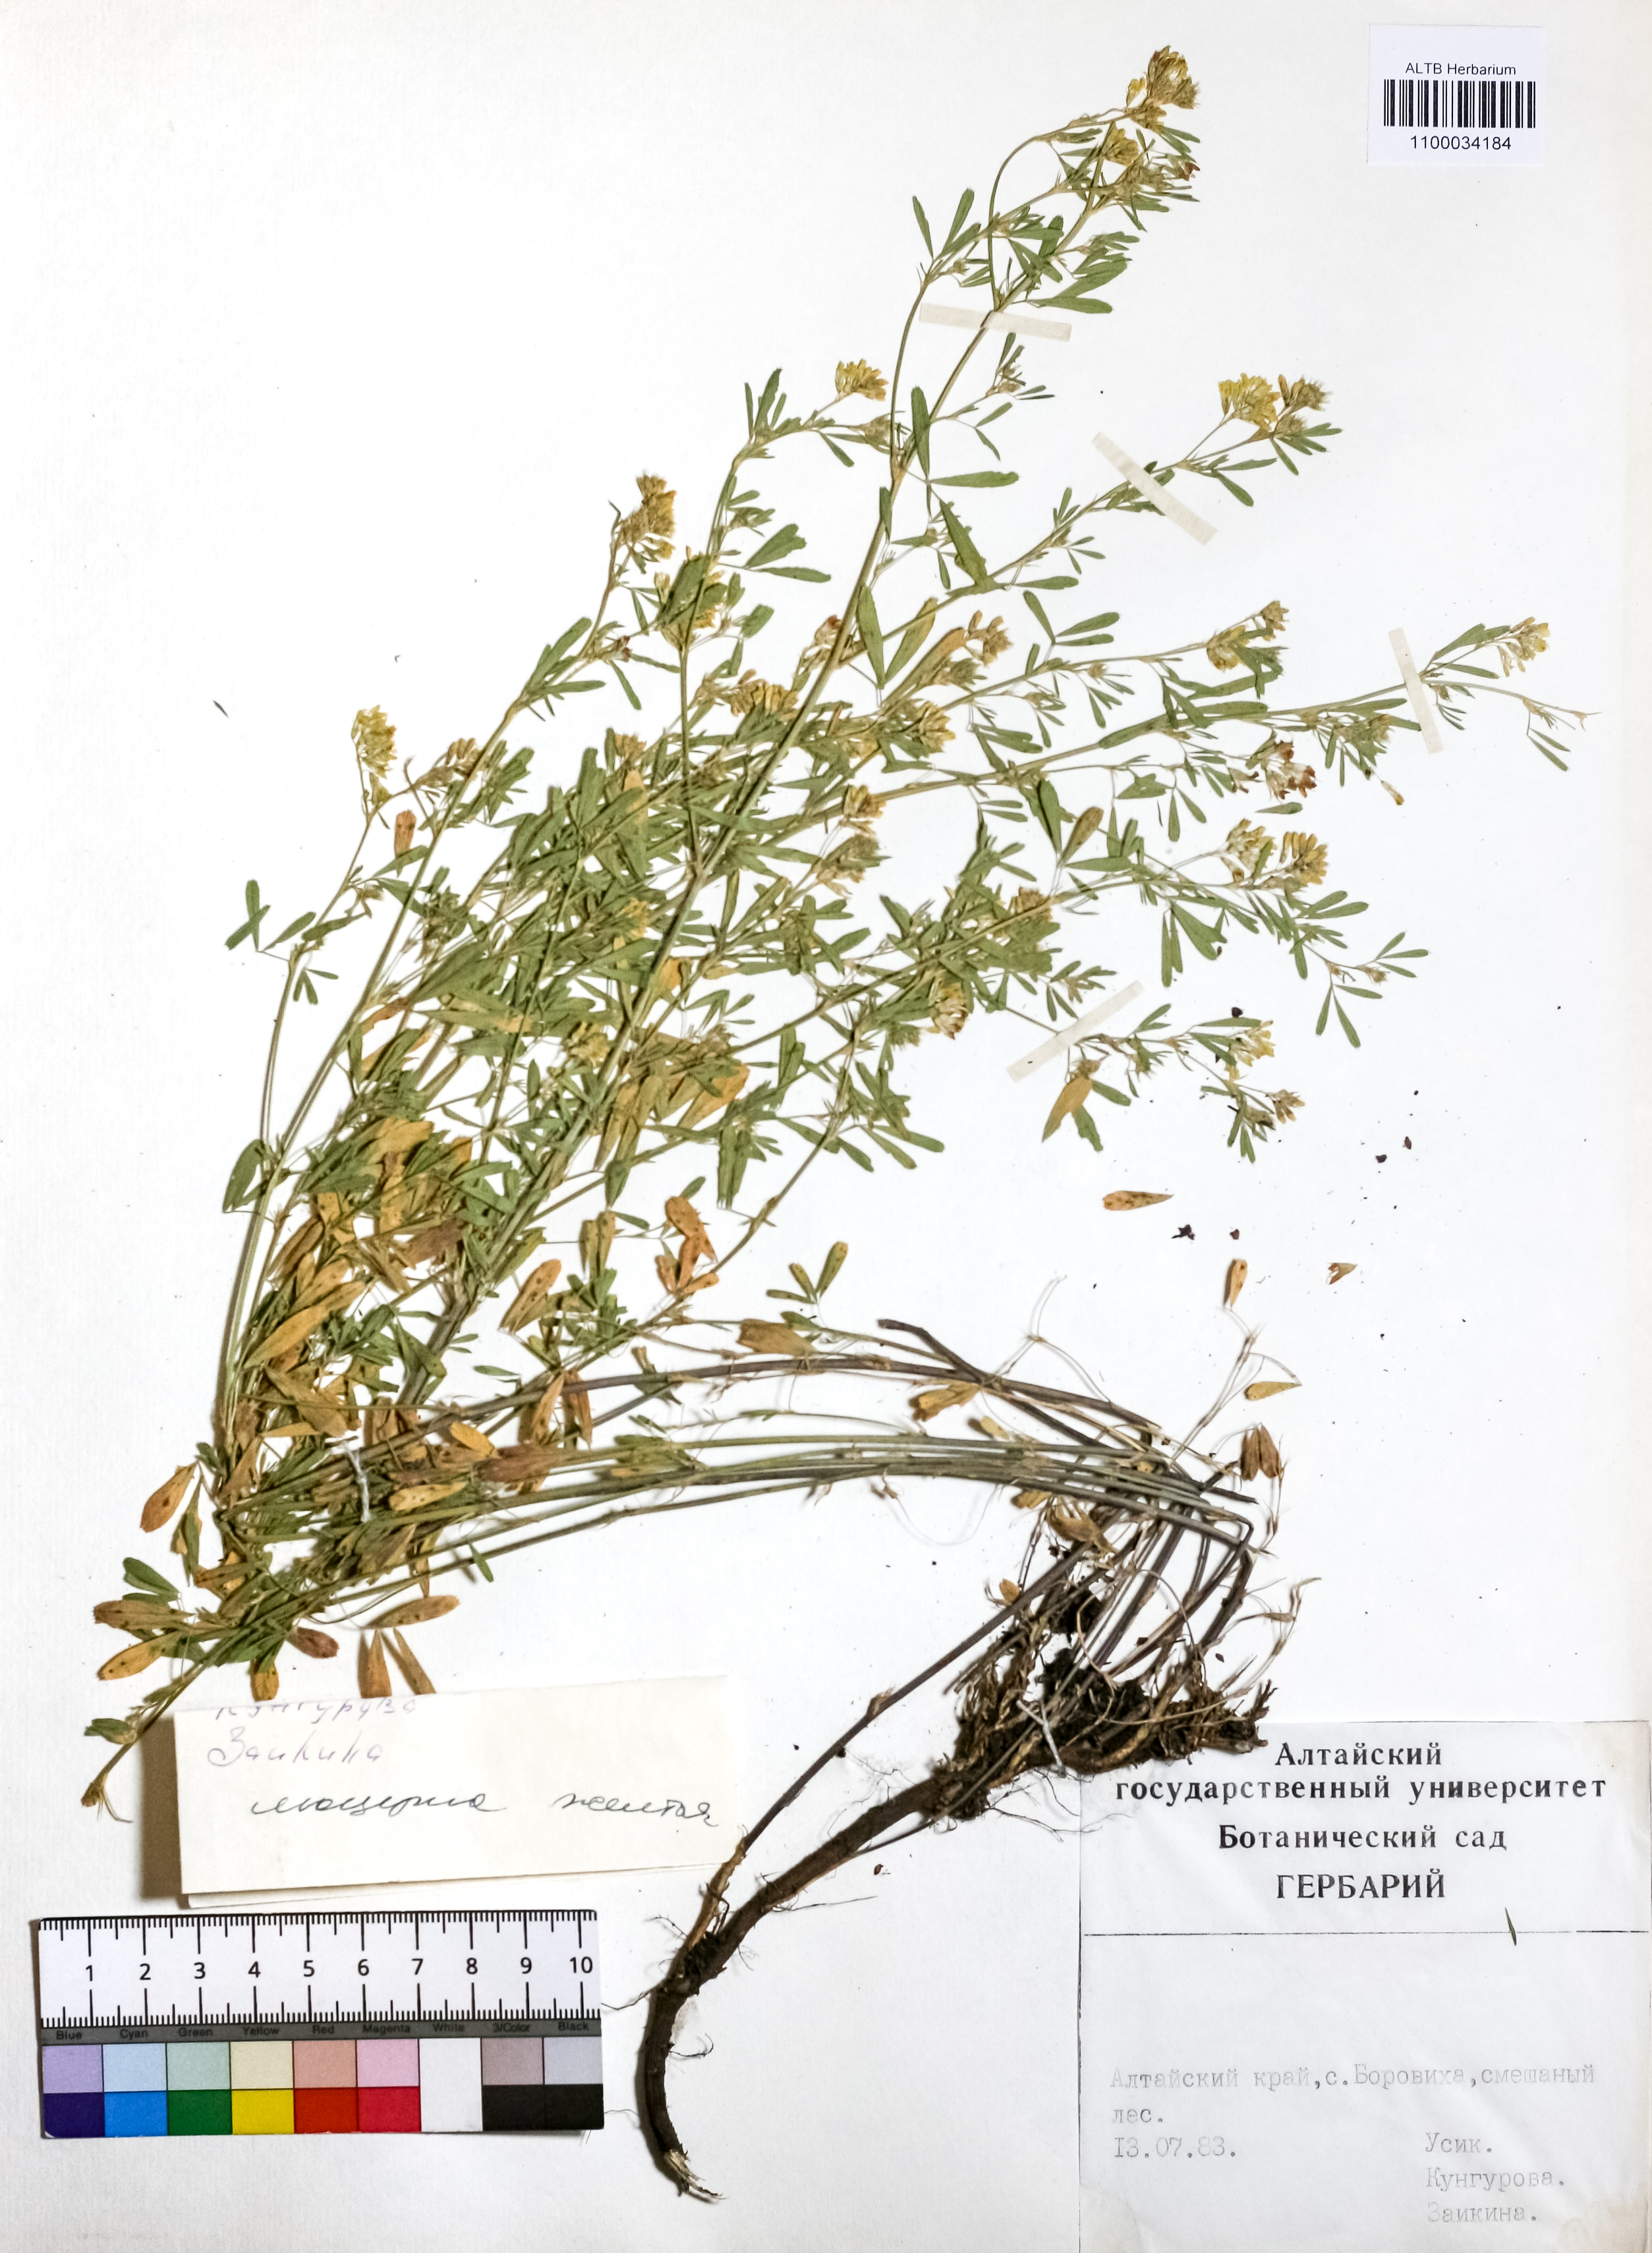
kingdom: Plantae
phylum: Tracheophyta
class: Magnoliopsida
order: Fabales
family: Fabaceae
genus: Medicago
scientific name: Medicago falcata
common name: Sickle medick
